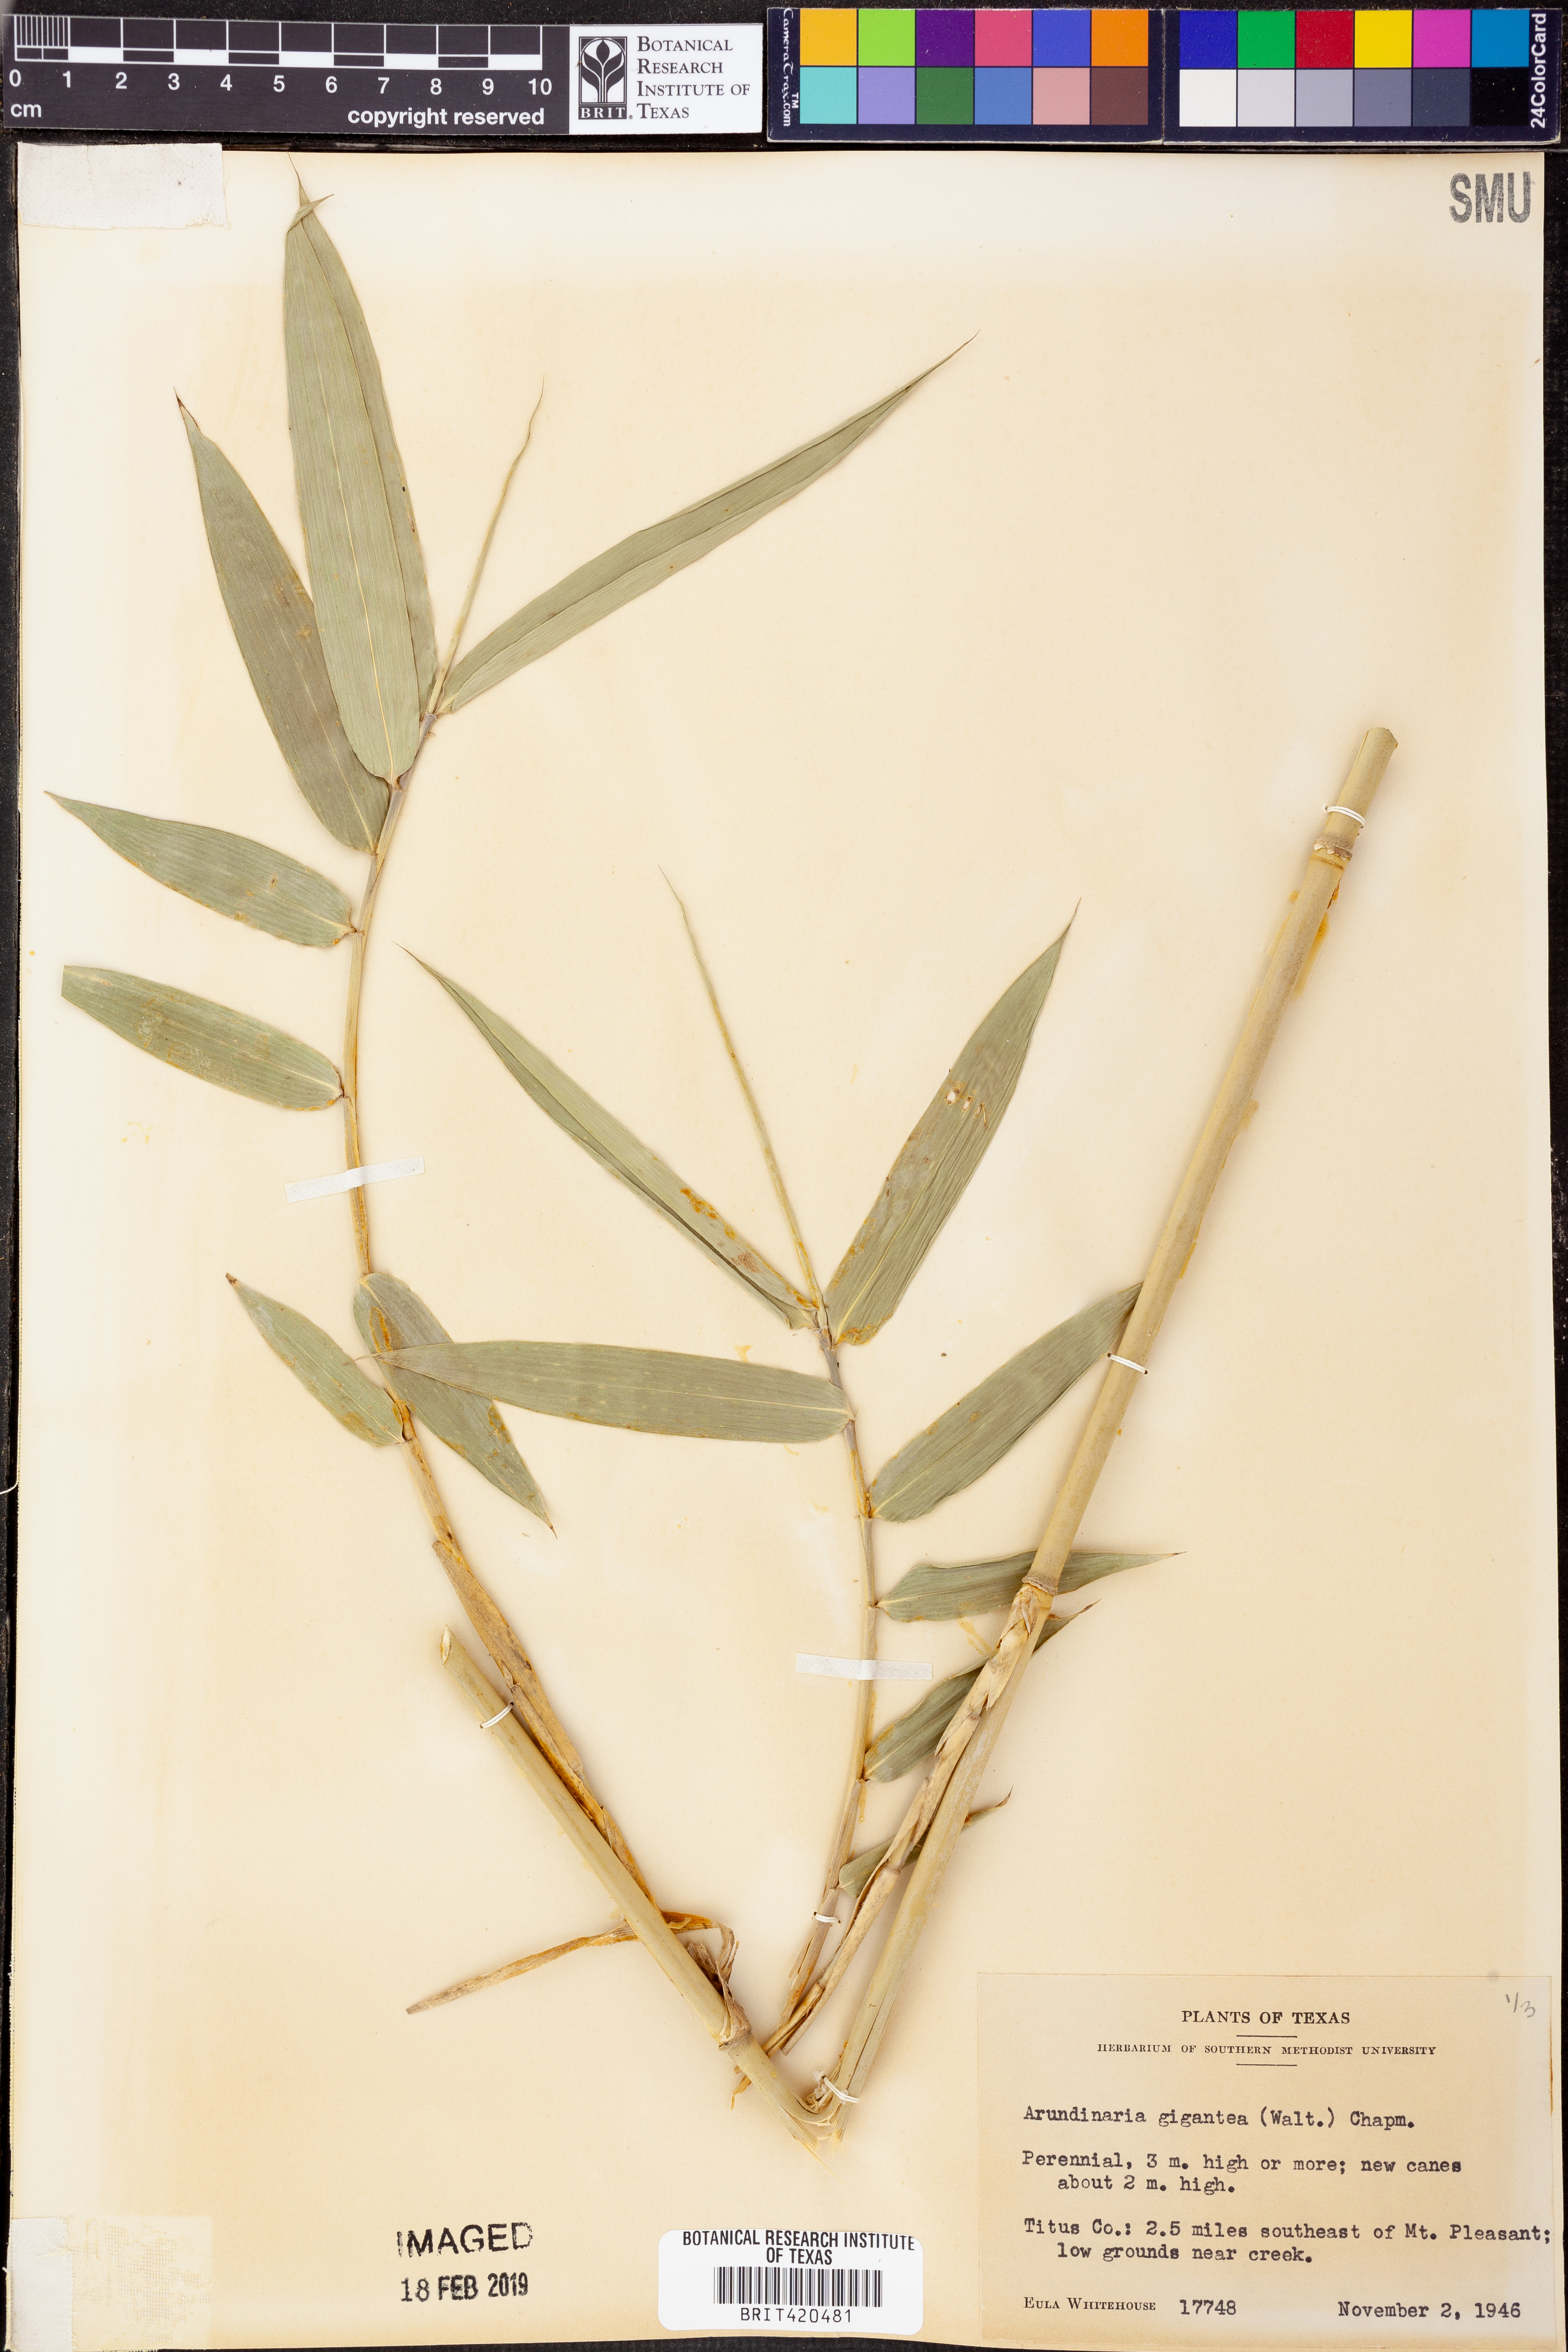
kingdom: Plantae
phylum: Tracheophyta
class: Liliopsida
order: Poales
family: Poaceae
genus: Arundinaria
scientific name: Arundinaria gigantea
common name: Giant cane
